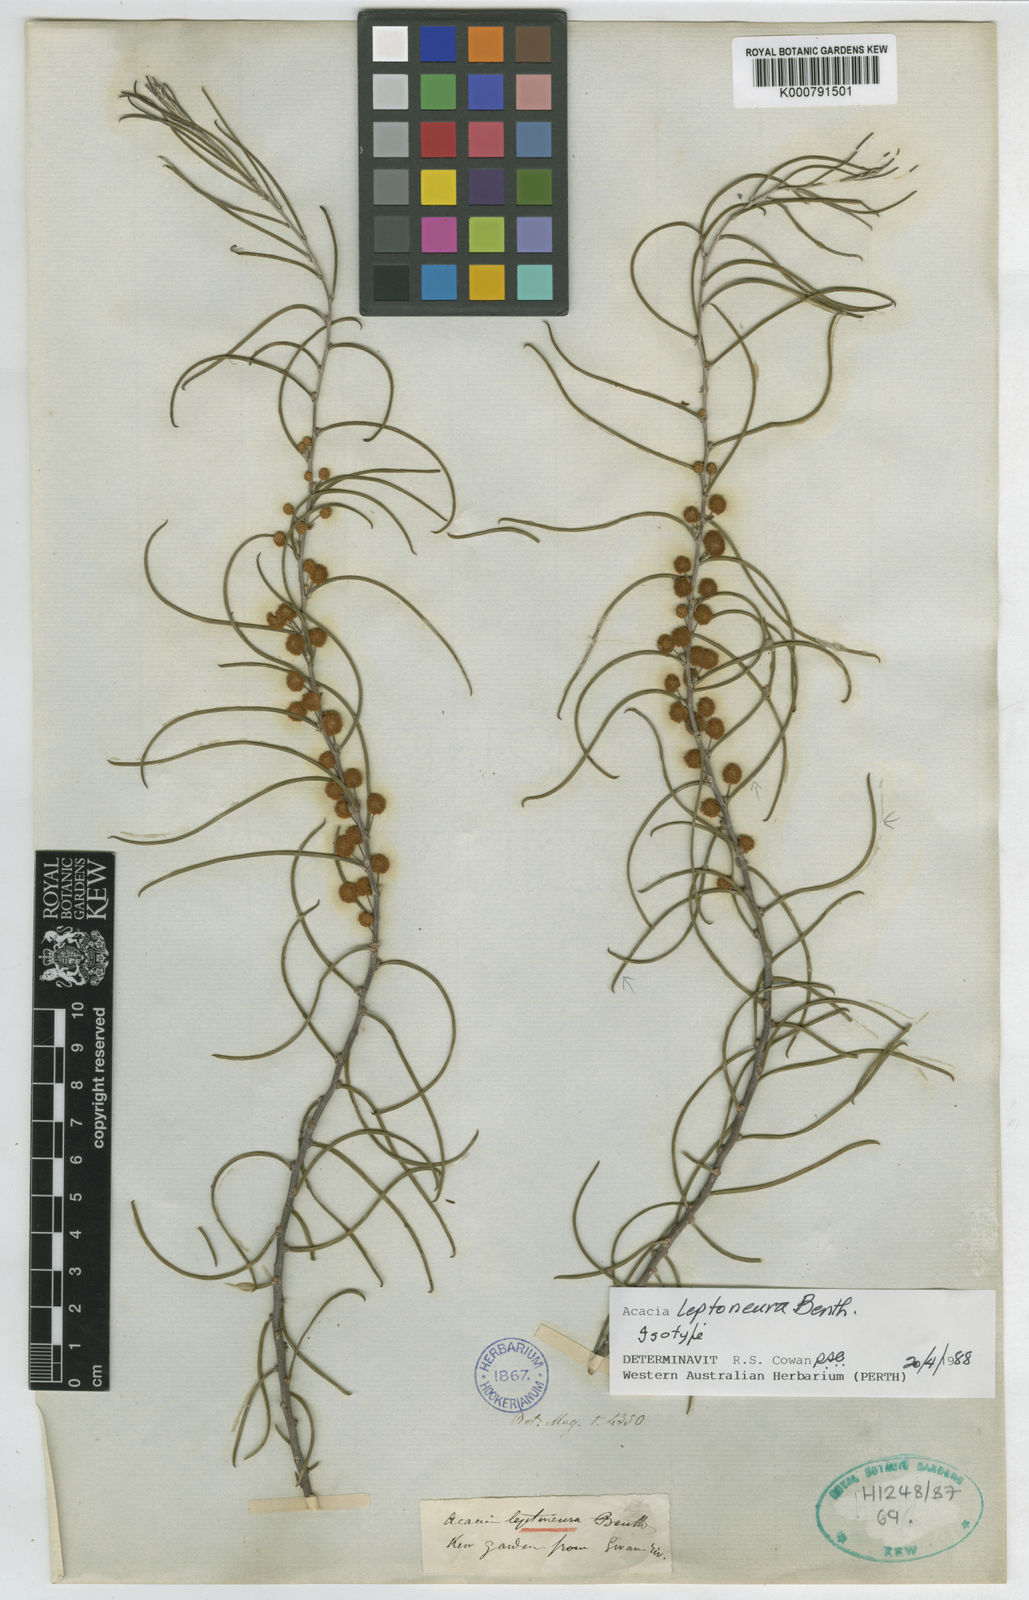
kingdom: Plantae
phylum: Tracheophyta
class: Magnoliopsida
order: Fabales
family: Fabaceae
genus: Acacia
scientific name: Acacia leptoneura
